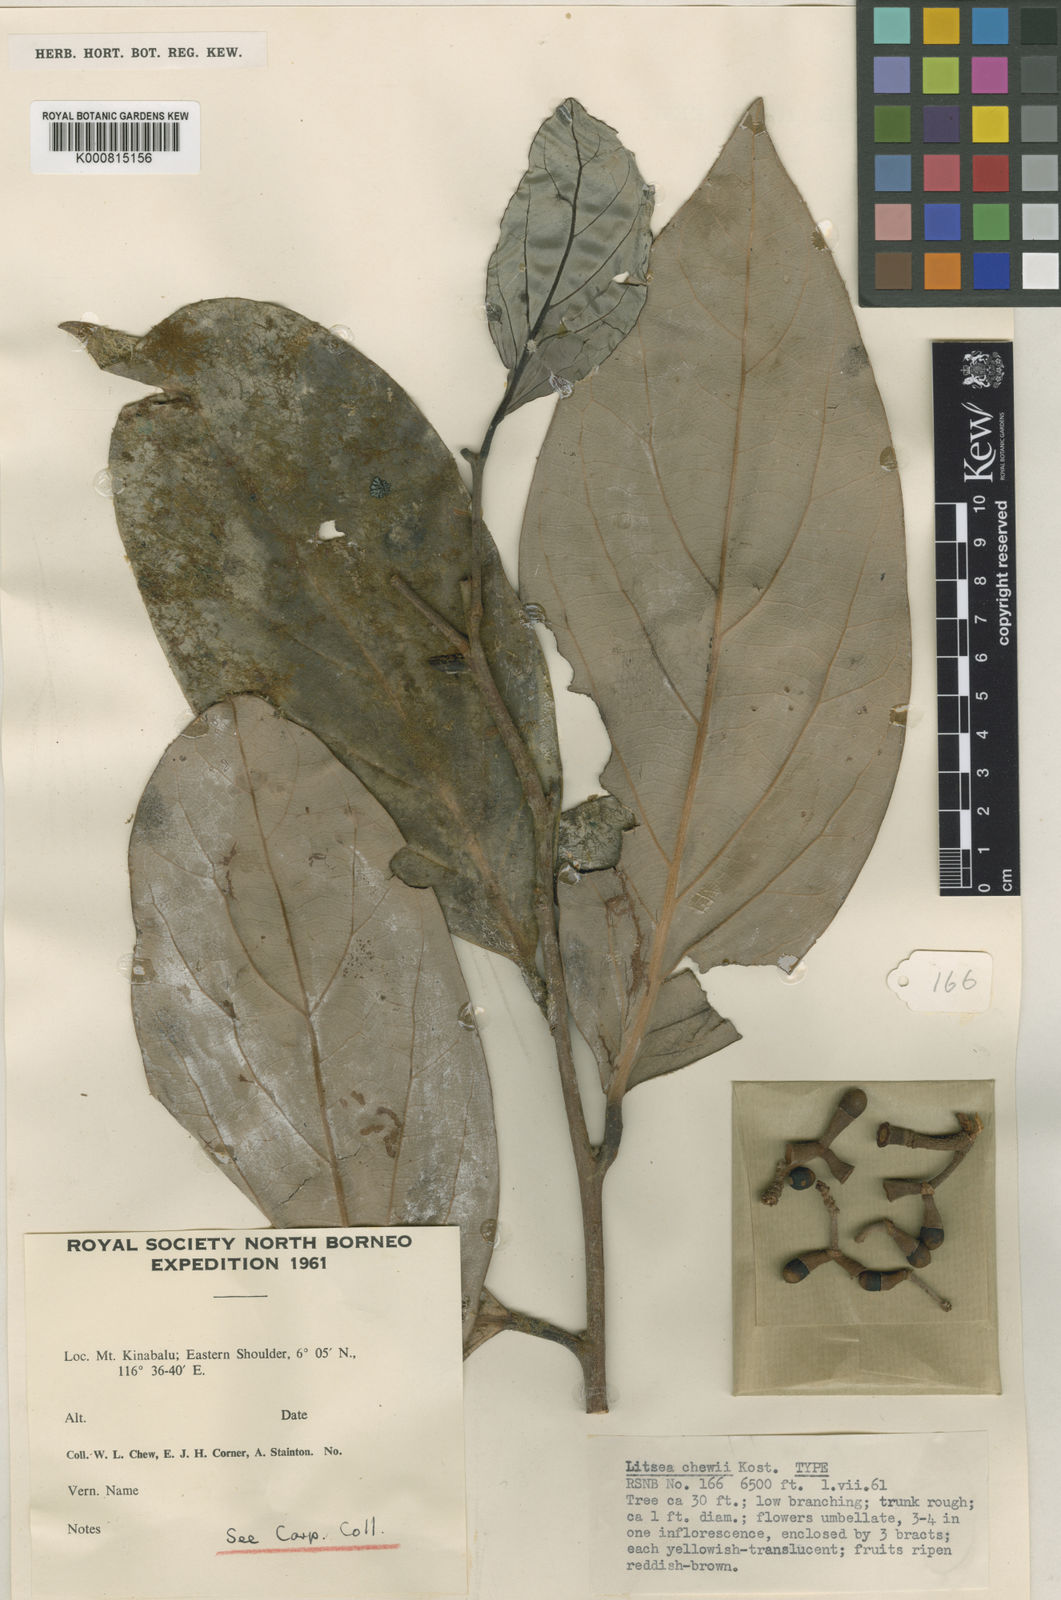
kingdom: Plantae
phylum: Tracheophyta
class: Magnoliopsida
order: Laurales
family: Lauraceae
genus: Litsea
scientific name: Litsea chewii
